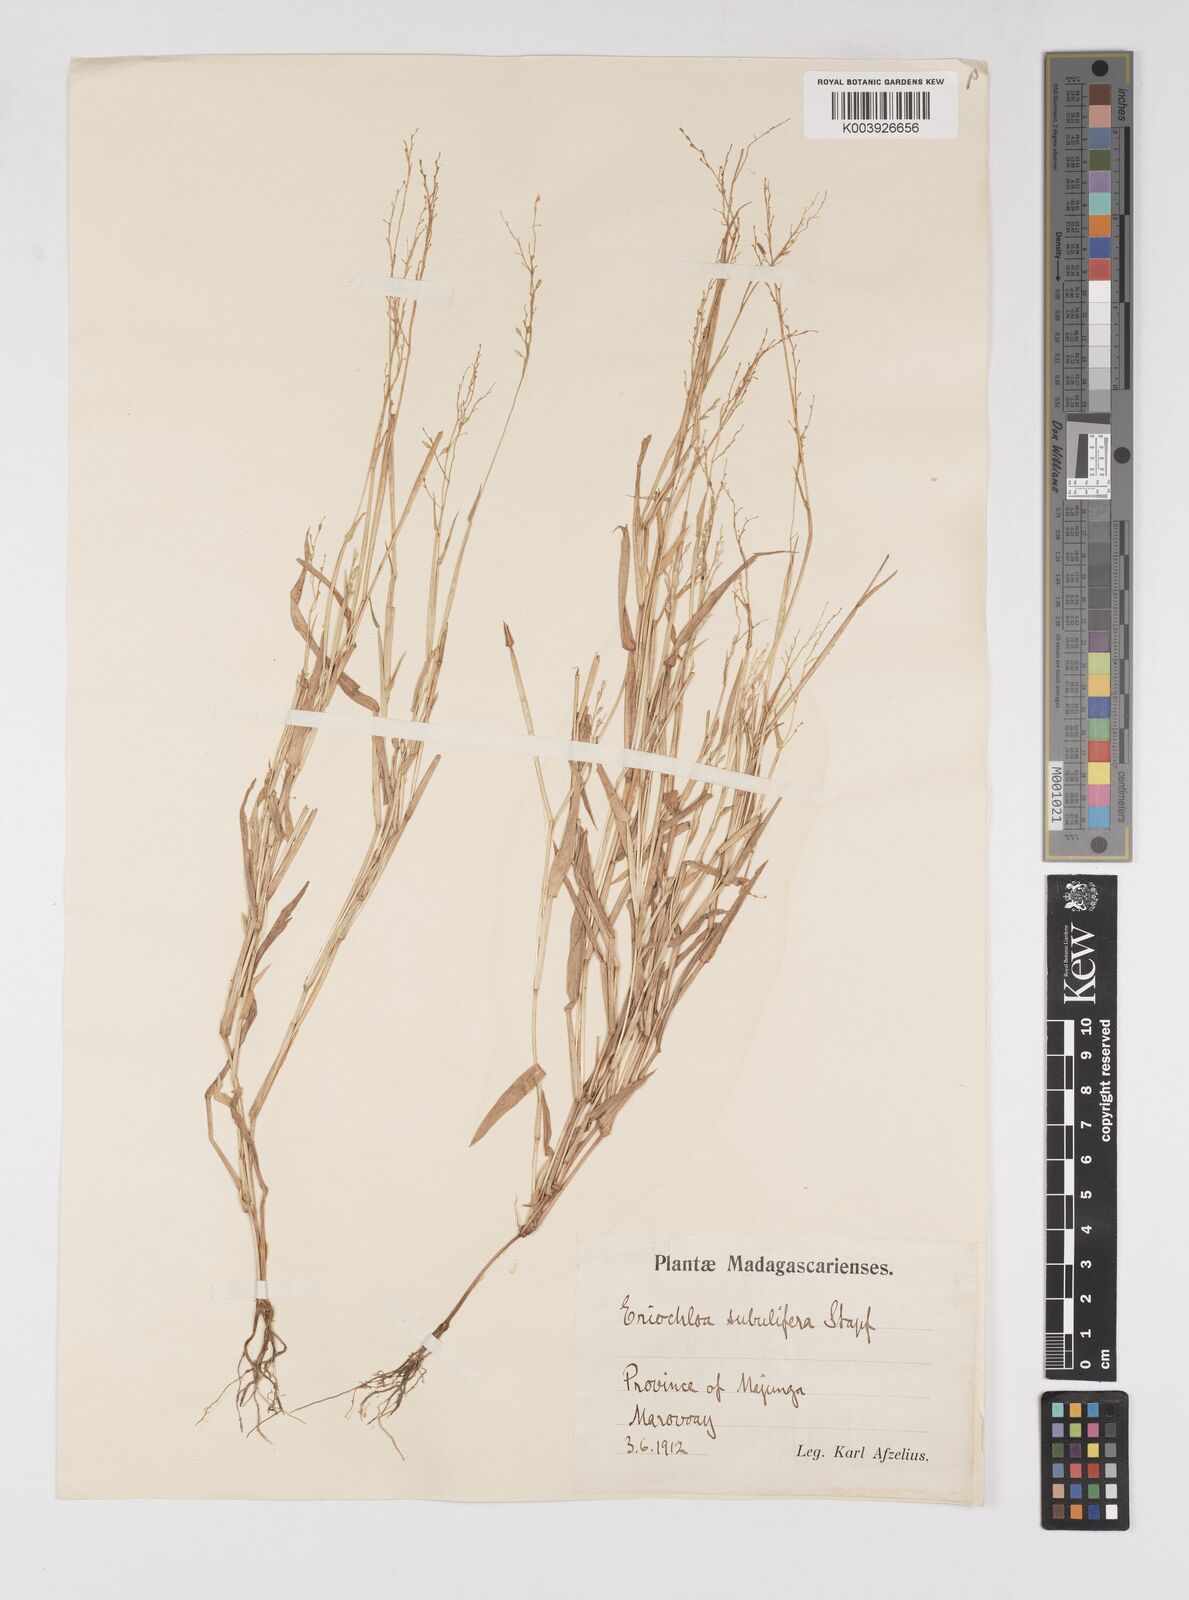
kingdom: Plantae
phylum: Tracheophyta
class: Liliopsida
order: Poales
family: Poaceae
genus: Eriochloa
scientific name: Eriochloa subulifera
